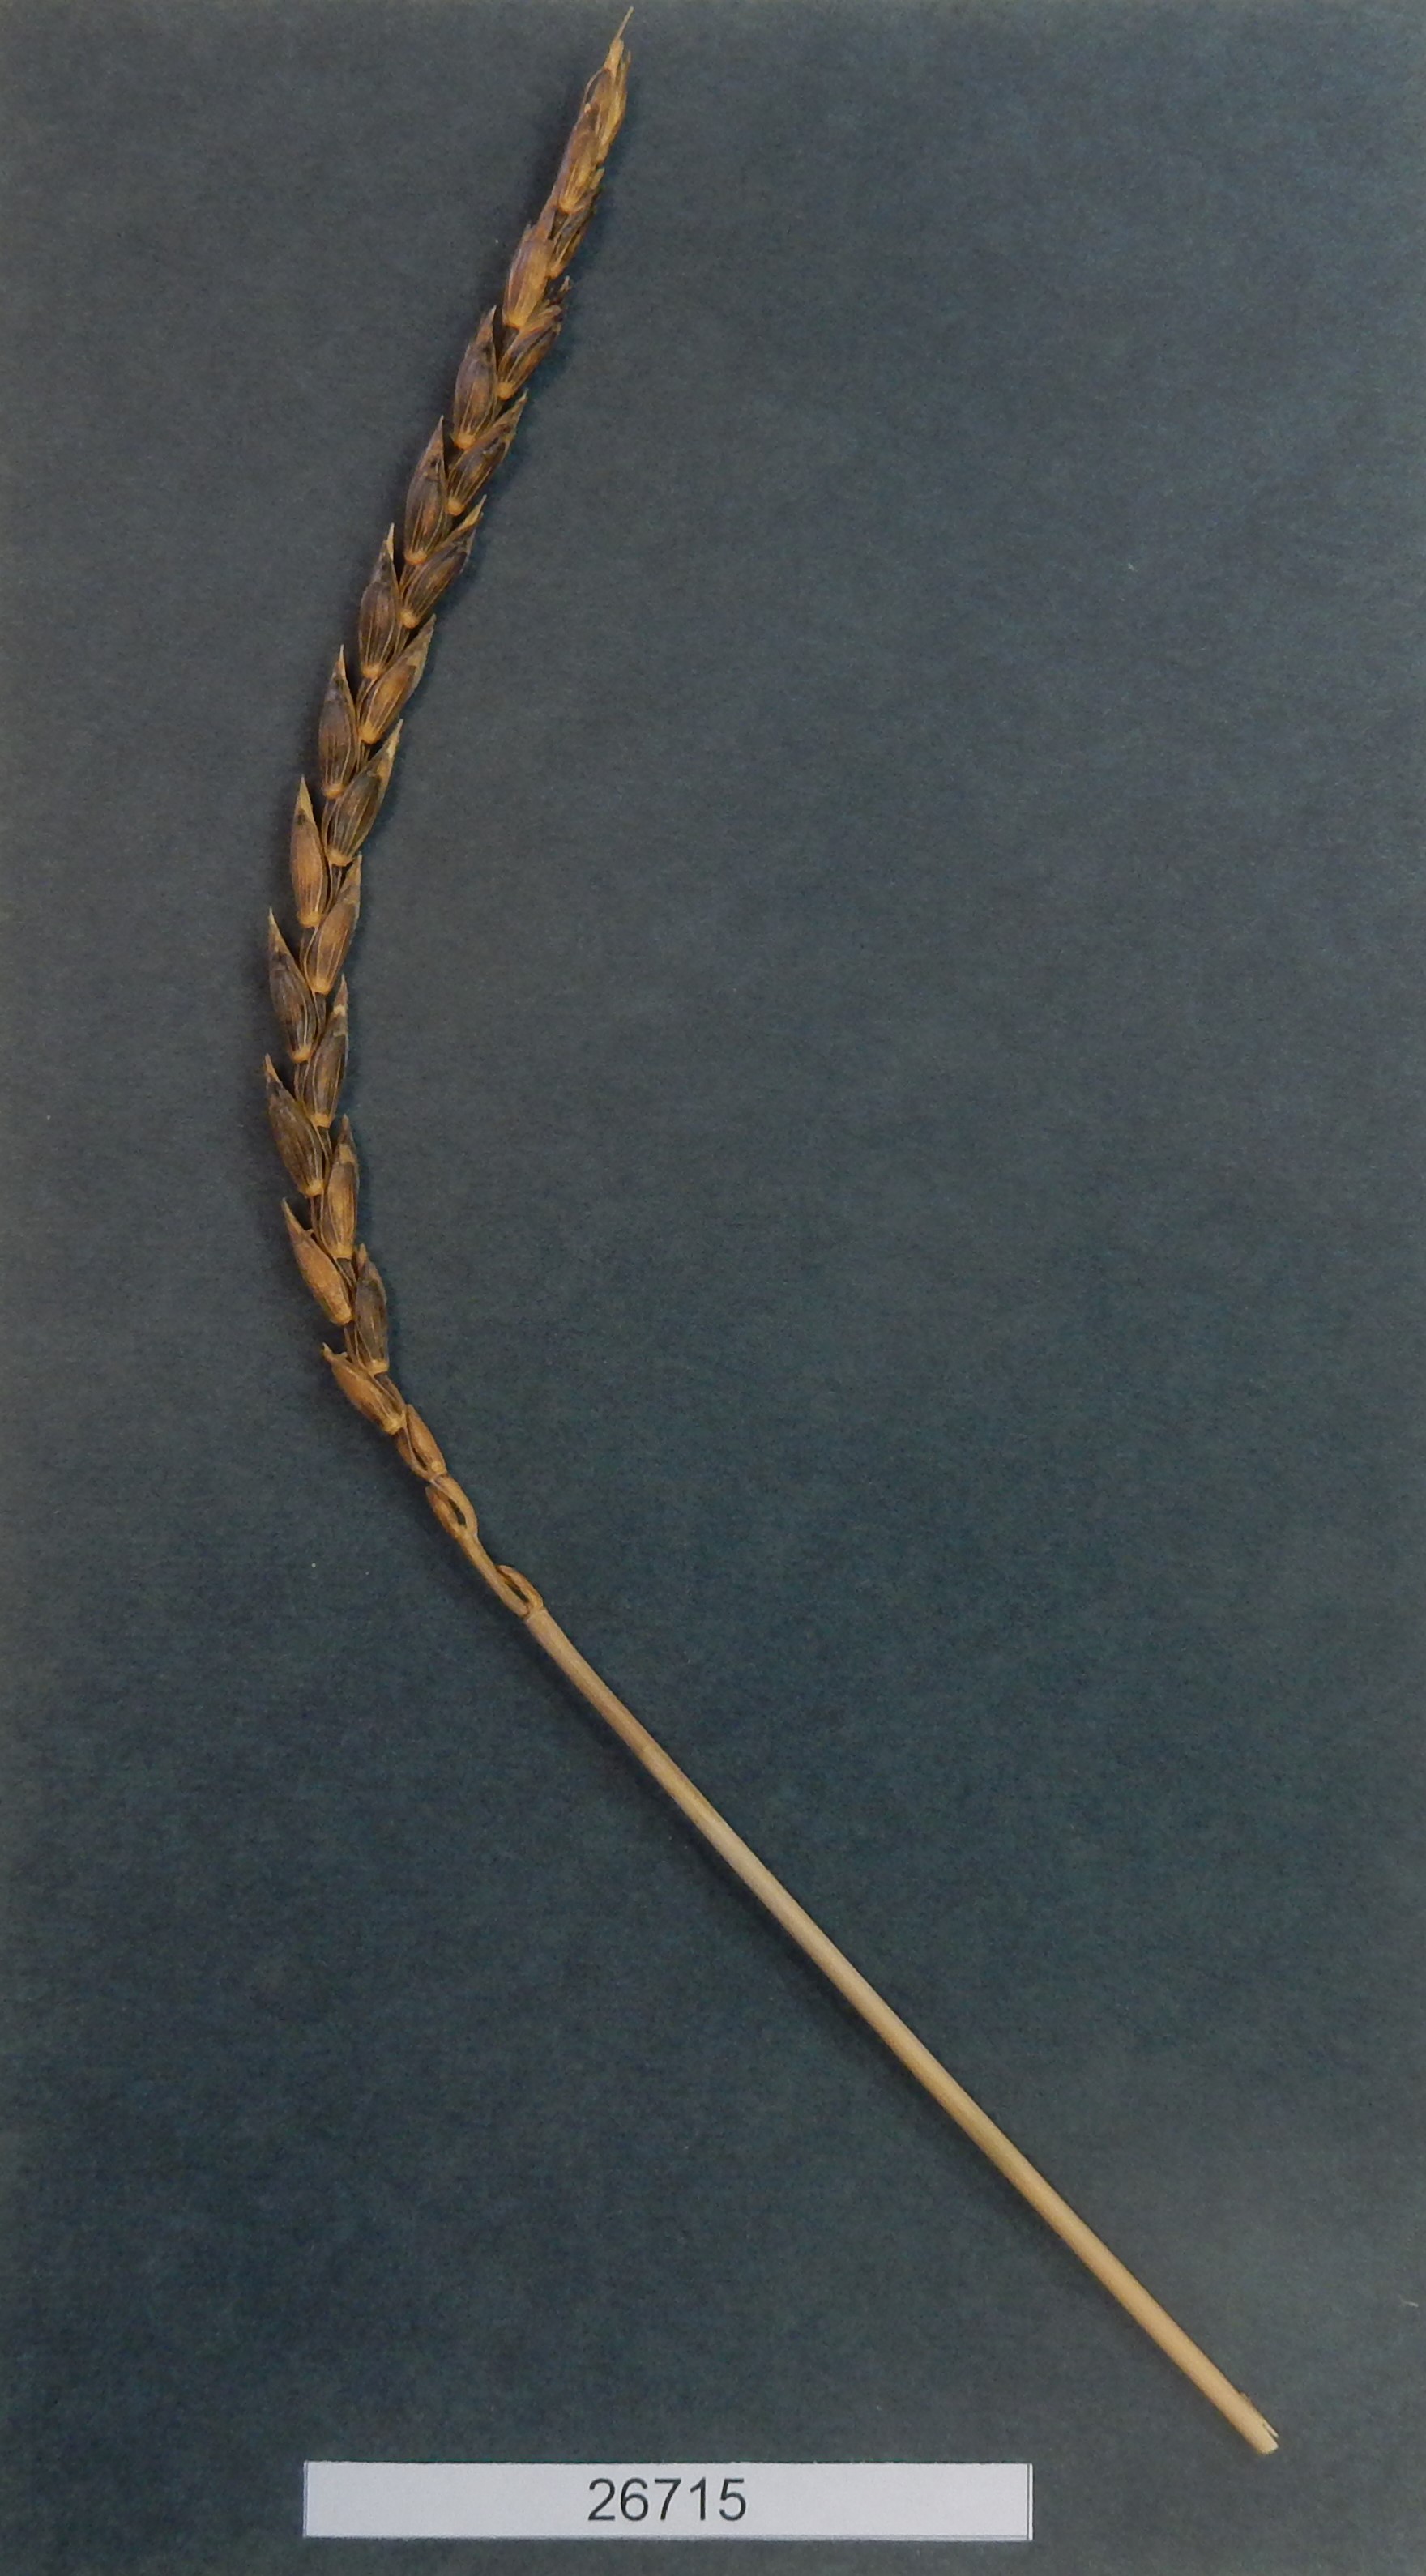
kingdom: Plantae
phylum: Tracheophyta
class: Liliopsida
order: Poales
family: Poaceae
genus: Triticum
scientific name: Triticum aestivum
